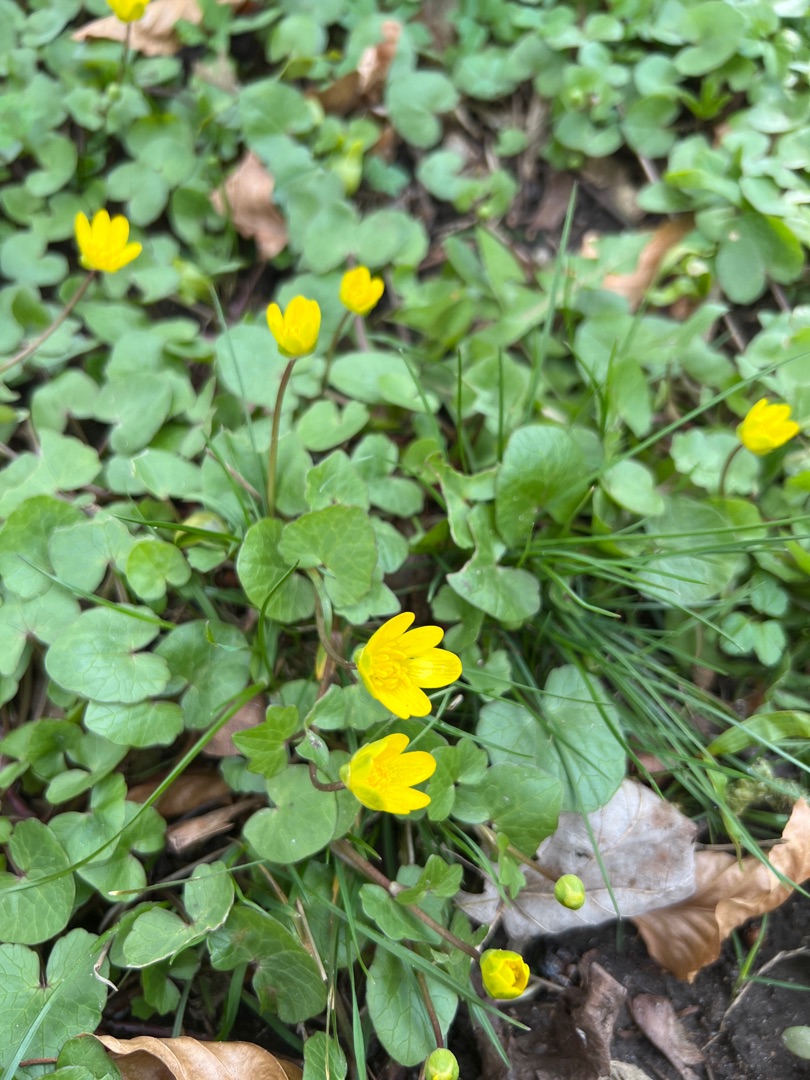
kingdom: Plantae
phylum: Tracheophyta
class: Magnoliopsida
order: Ranunculales
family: Ranunculaceae
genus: Ficaria
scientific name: Ficaria verna
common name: Almindelig vorterod
